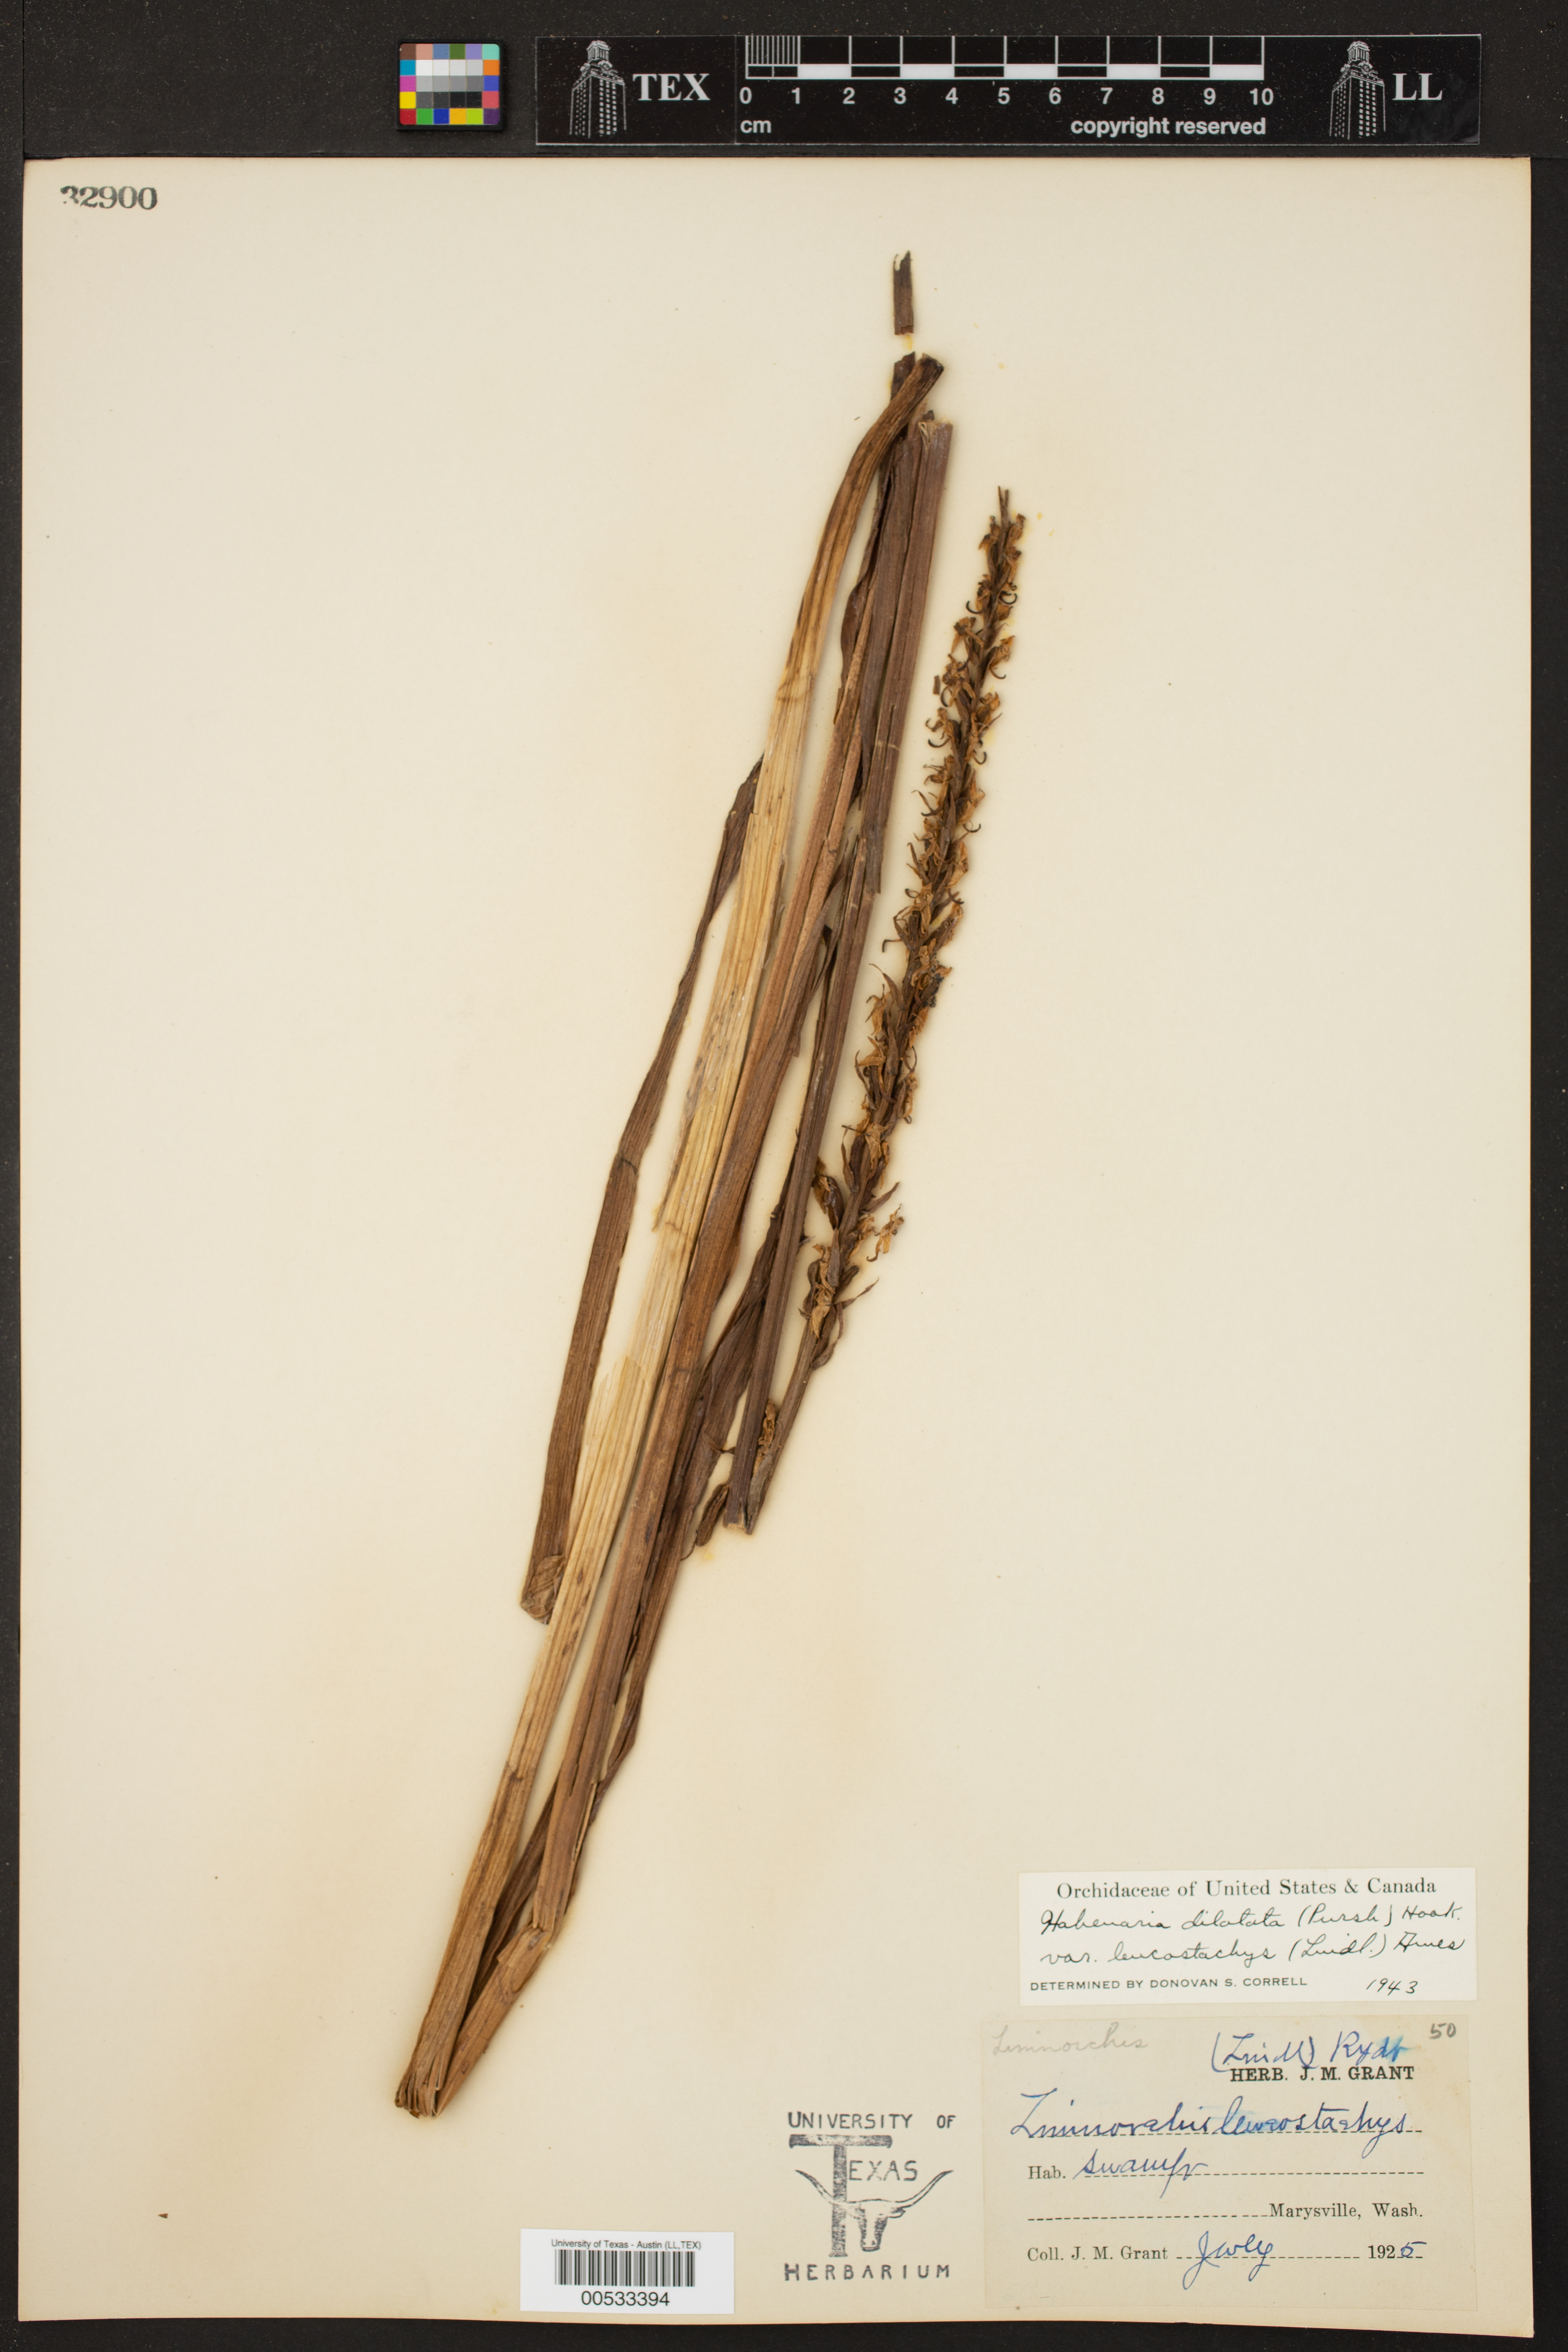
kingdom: Plantae
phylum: Tracheophyta
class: Liliopsida
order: Asparagales
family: Orchidaceae
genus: Platanthera
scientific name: Platanthera dilatata
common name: Bog candles
